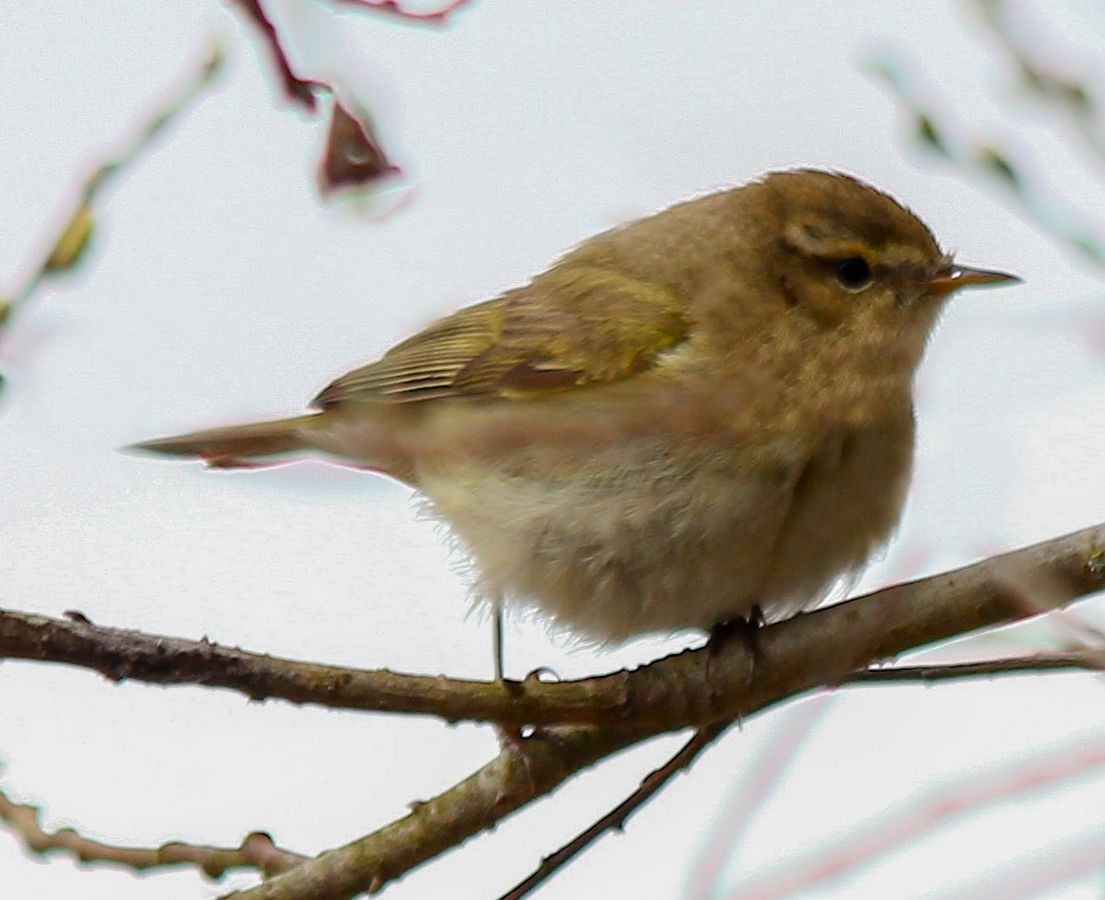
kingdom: Animalia
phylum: Chordata
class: Aves
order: Passeriformes
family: Phylloscopidae
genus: Phylloscopus
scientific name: Phylloscopus collybita
